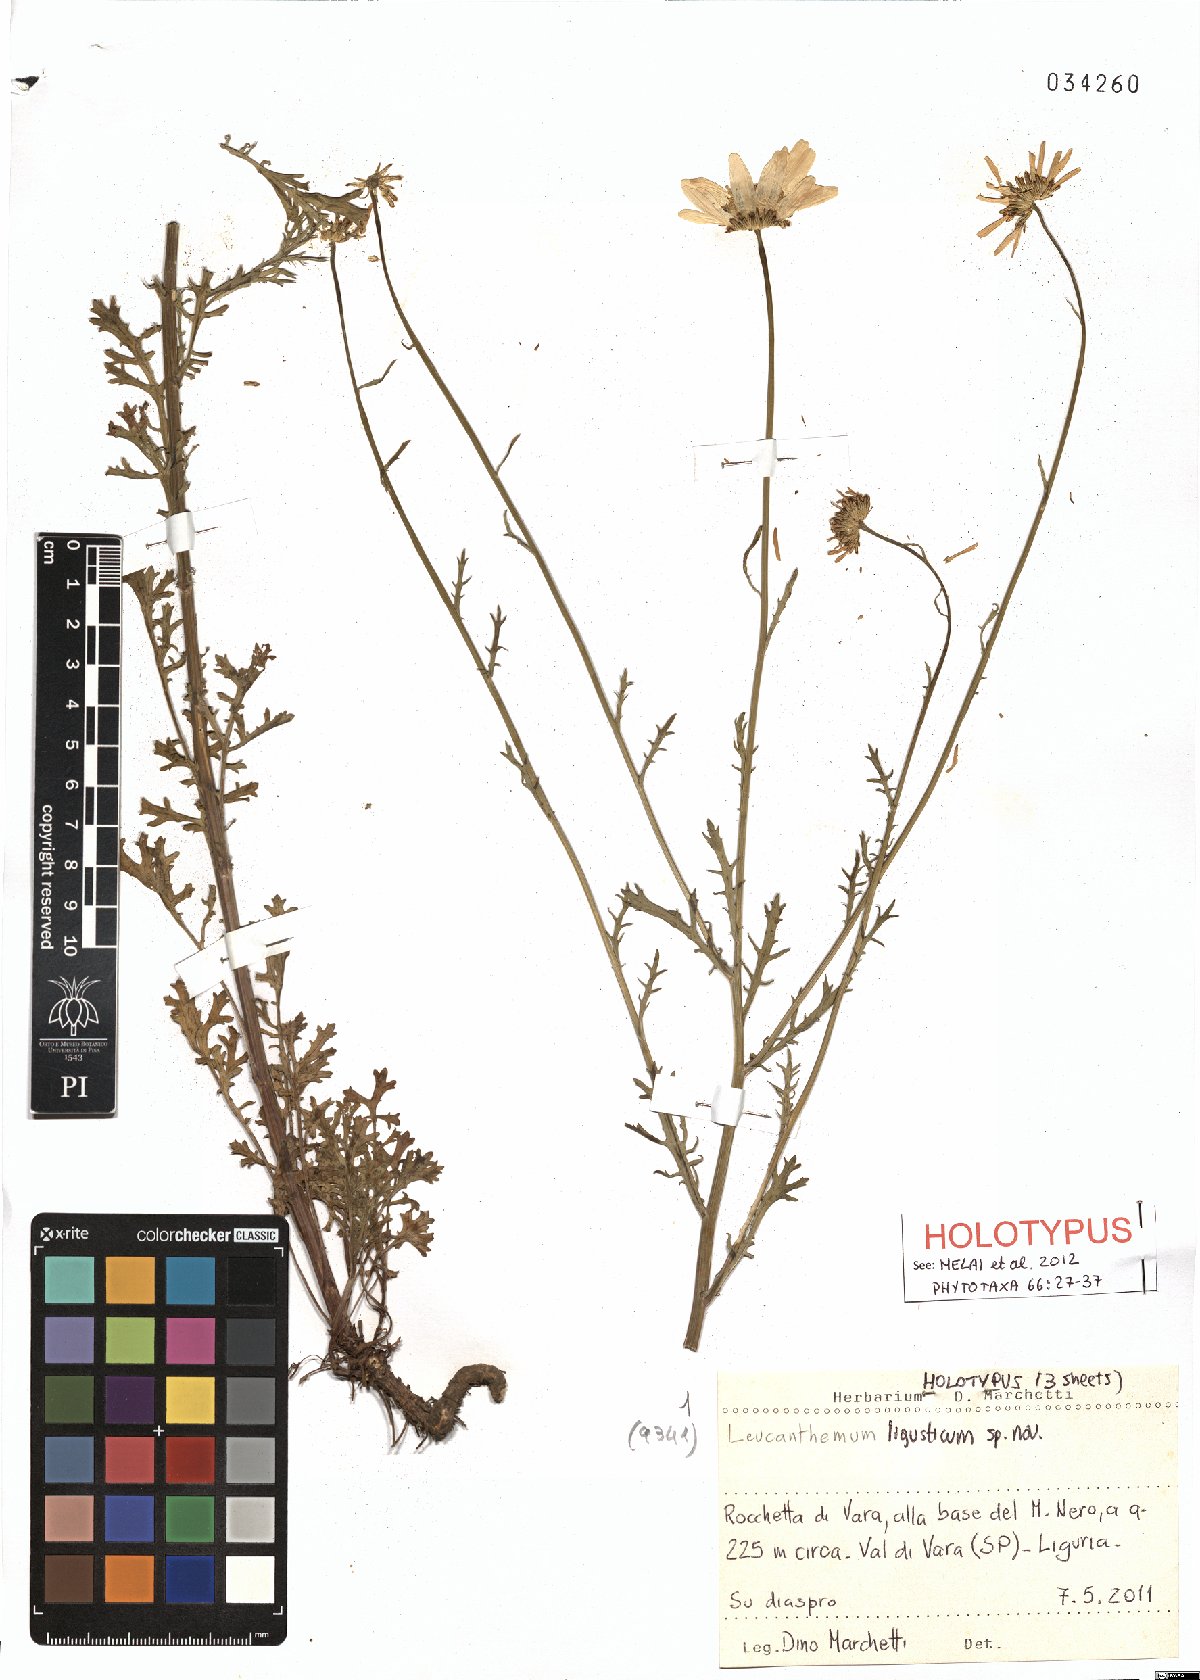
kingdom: Plantae
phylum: Tracheophyta
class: Magnoliopsida
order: Asterales
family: Asteraceae
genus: Leucanthemum
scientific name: Leucanthemum ligusticum
